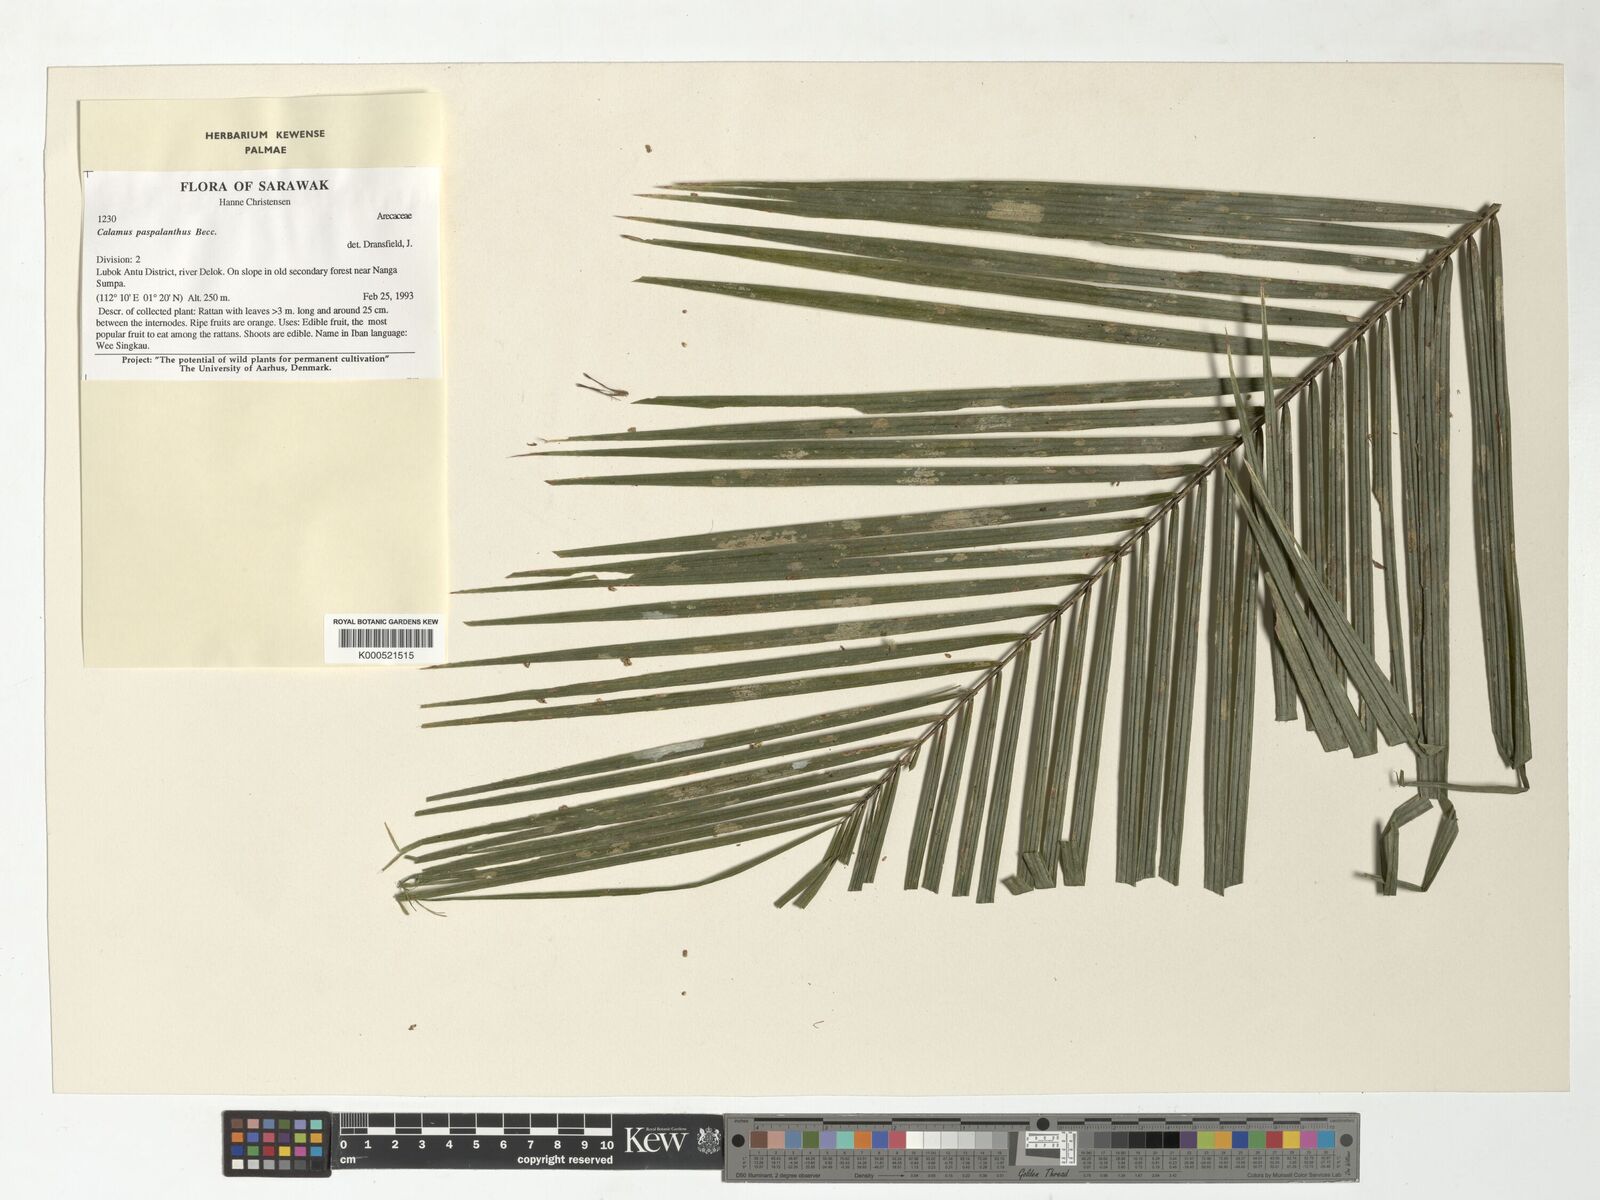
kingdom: Plantae
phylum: Tracheophyta
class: Liliopsida
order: Arecales
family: Arecaceae
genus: Calamus
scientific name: Calamus paspalanthus
